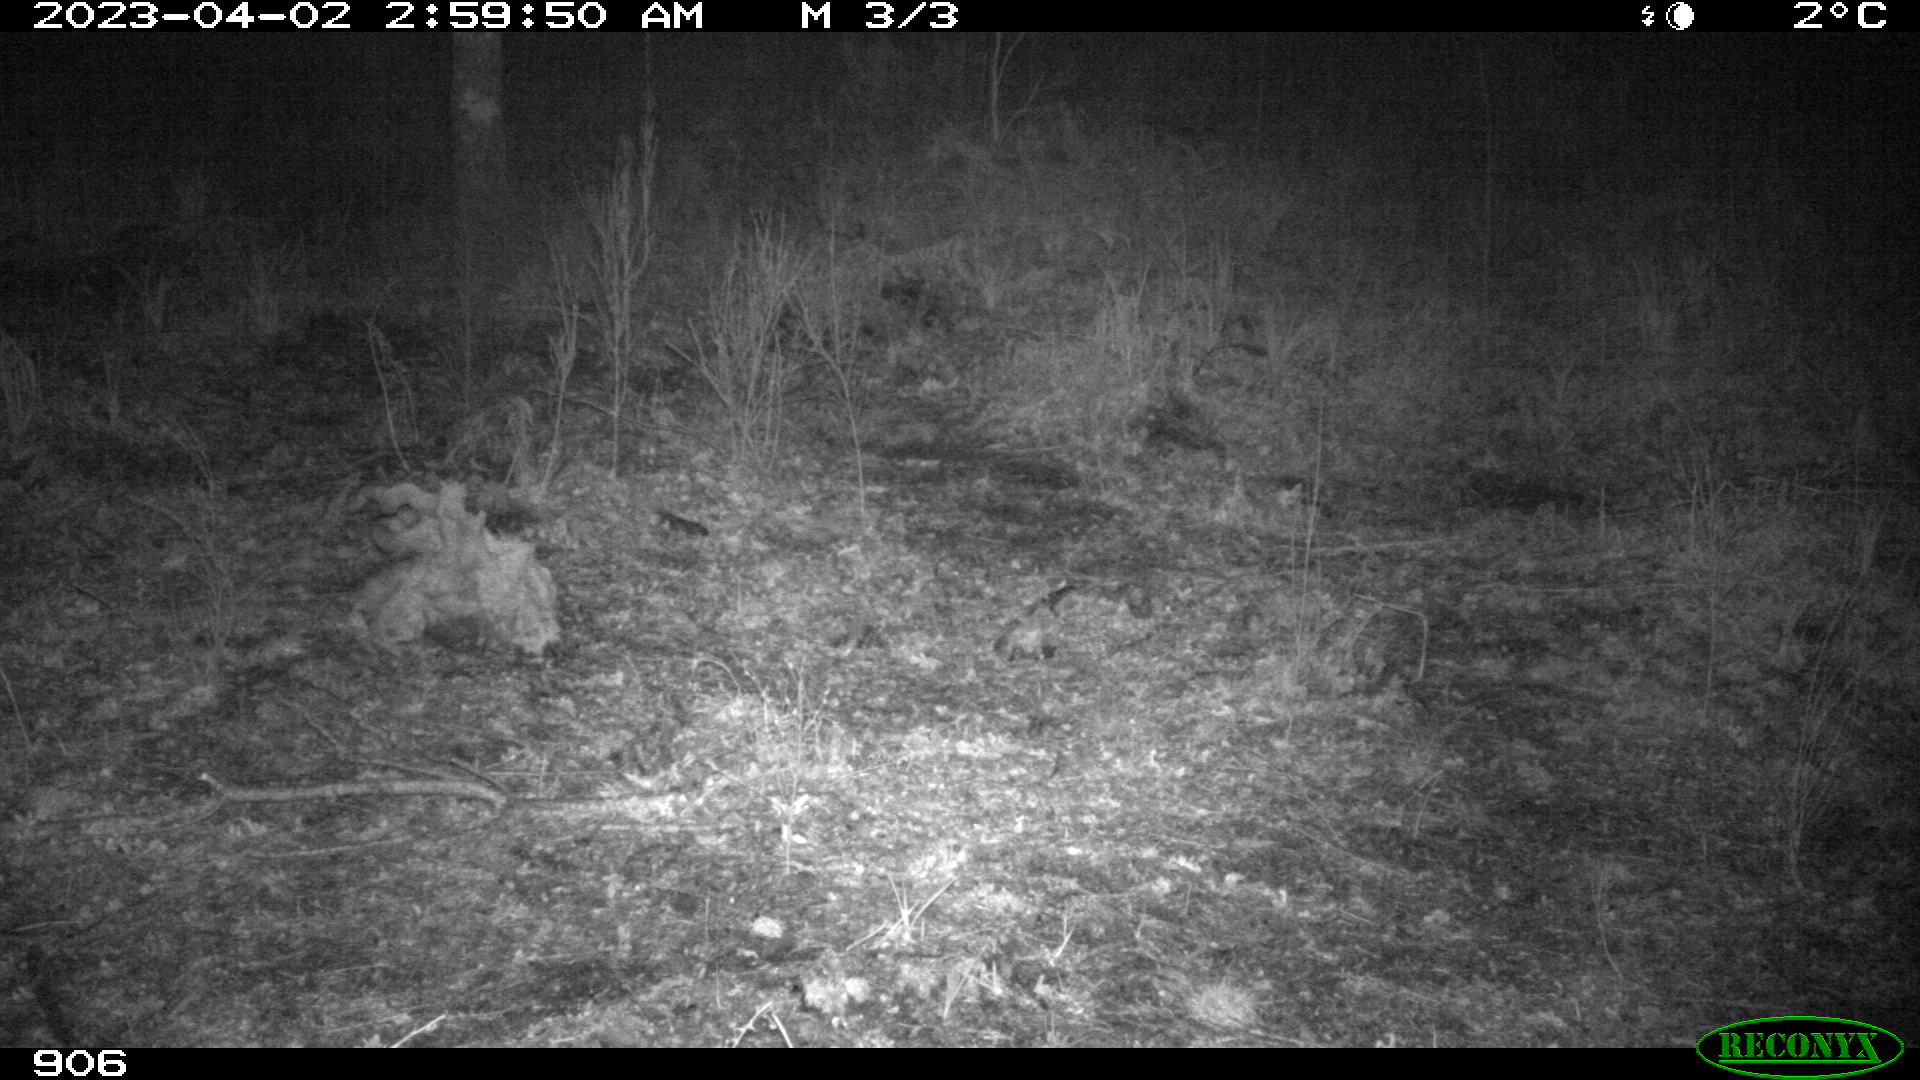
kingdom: Animalia
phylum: Chordata
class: Mammalia
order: Carnivora
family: Canidae
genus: Canis
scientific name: Canis lupus
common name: Gray wolf
